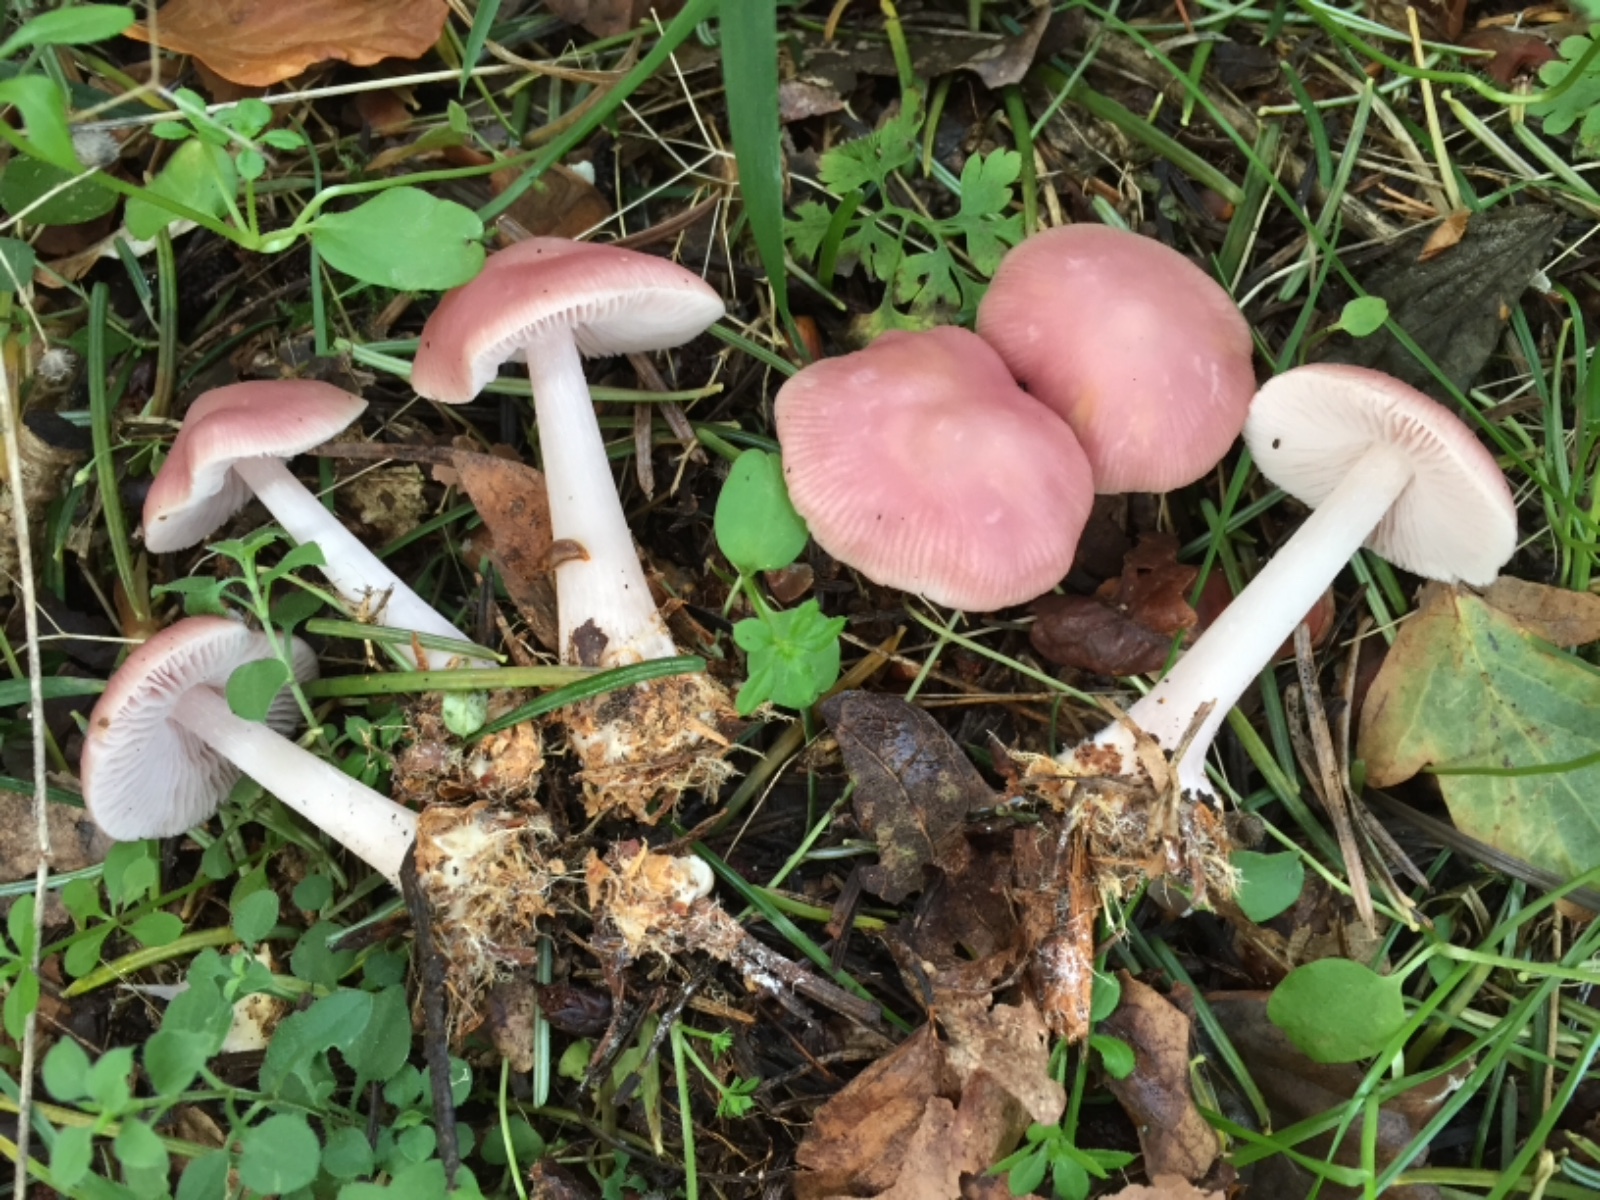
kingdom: Fungi
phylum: Basidiomycota
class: Agaricomycetes
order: Agaricales
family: Mycenaceae
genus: Mycena
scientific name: Mycena rosea
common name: rosa huesvamp
